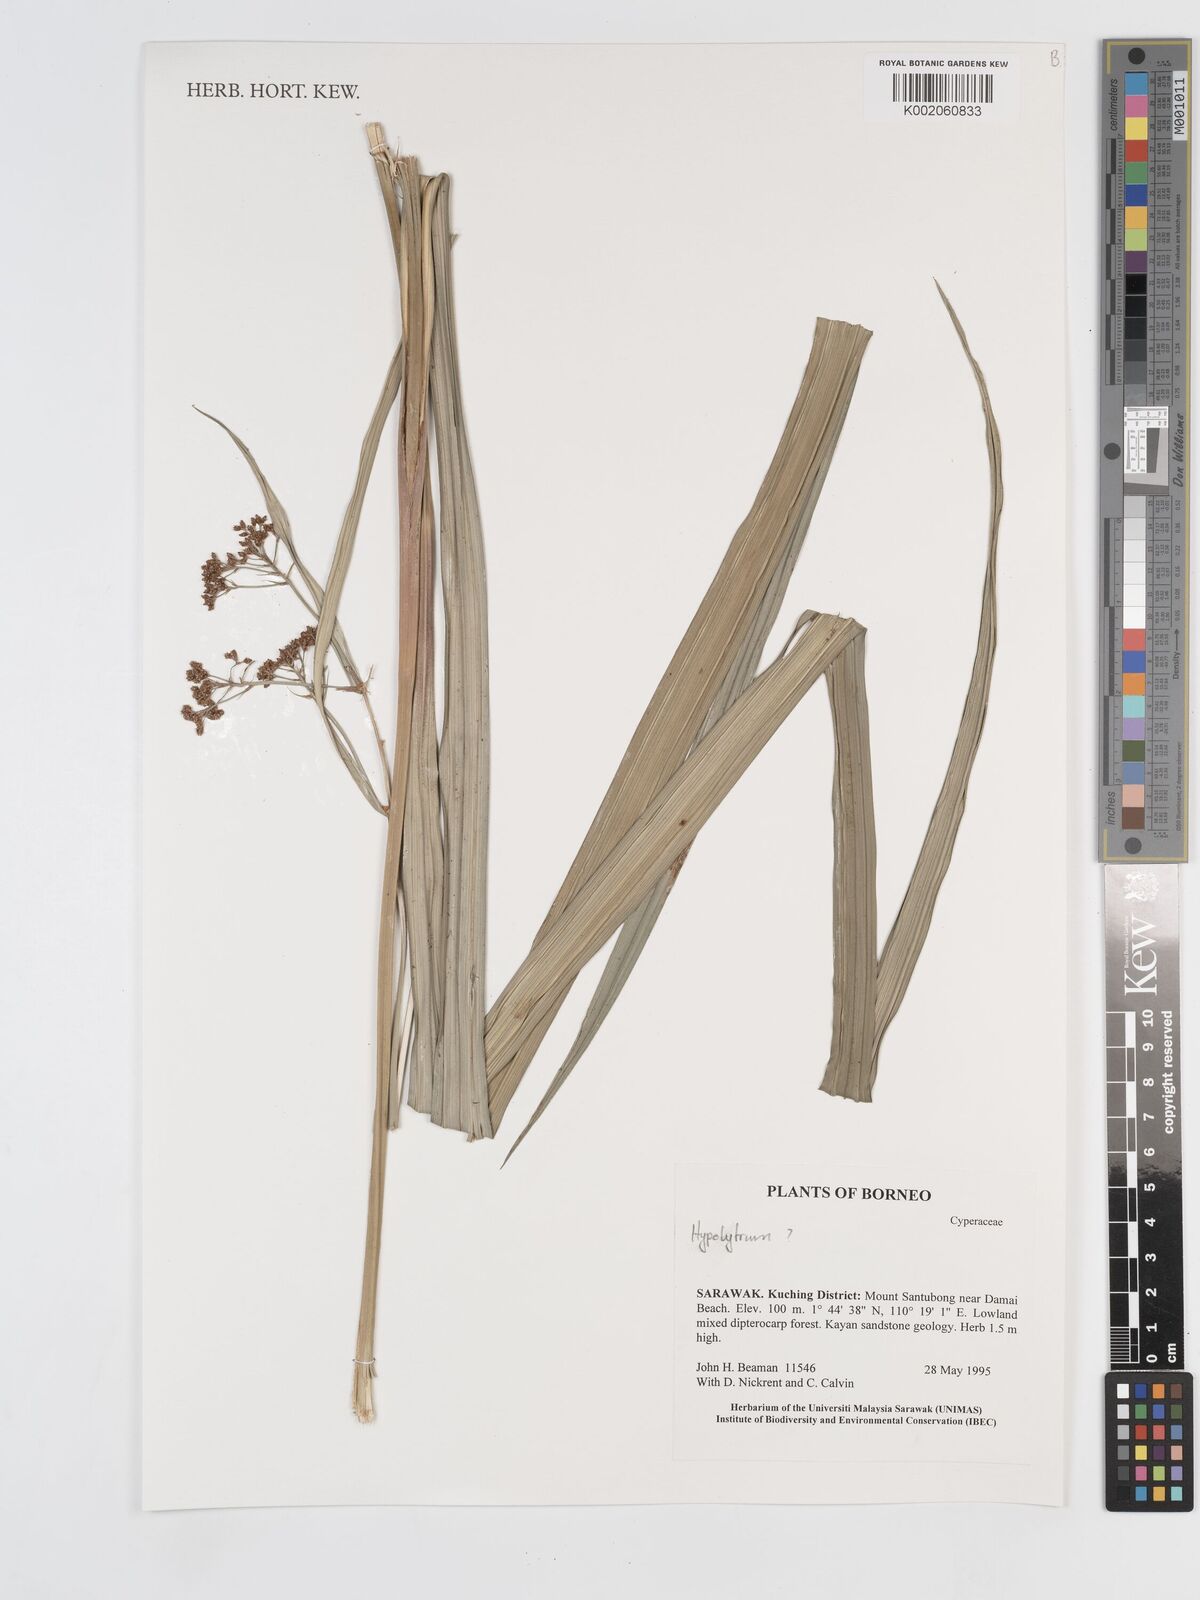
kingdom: Plantae
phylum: Tracheophyta
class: Liliopsida
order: Poales
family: Cyperaceae
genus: Hypolytrum
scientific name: Hypolytrum
